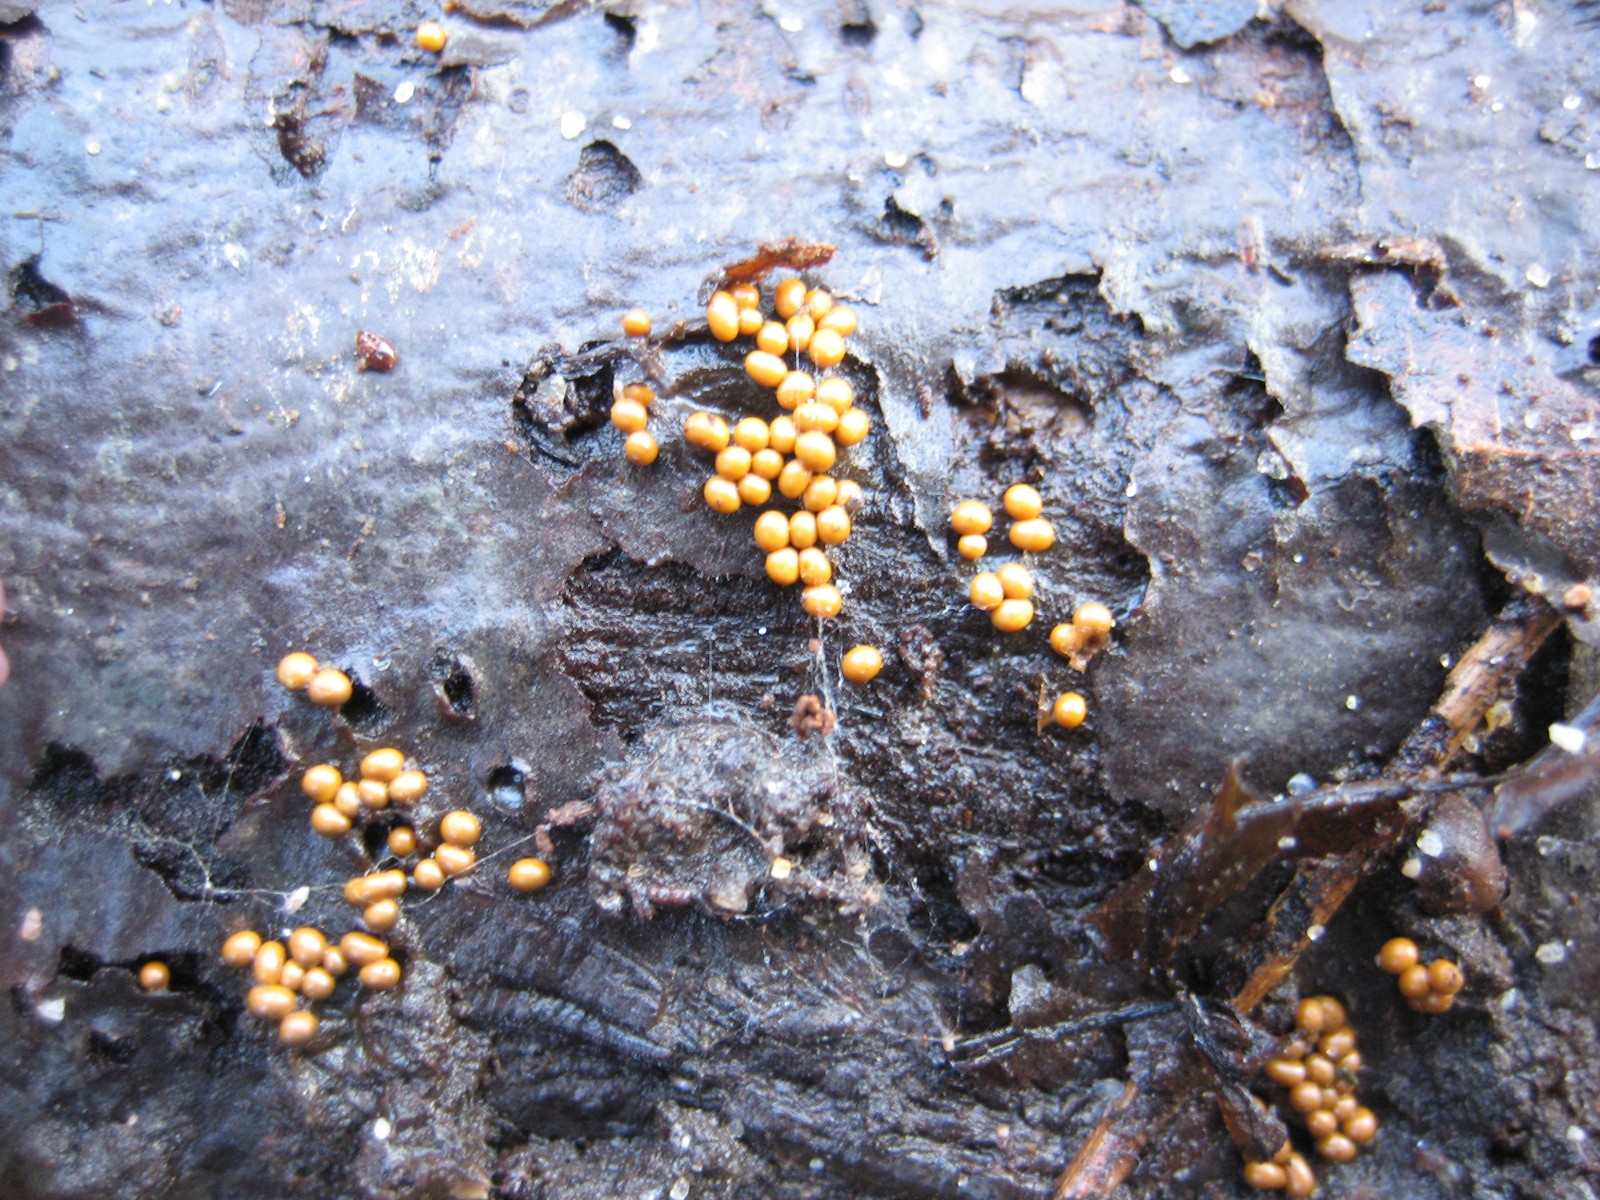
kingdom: Protozoa
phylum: Mycetozoa
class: Myxomycetes
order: Trichiales
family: Trichiaceae
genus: Trichia
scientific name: Trichia varia
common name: foranderlig hårbold
